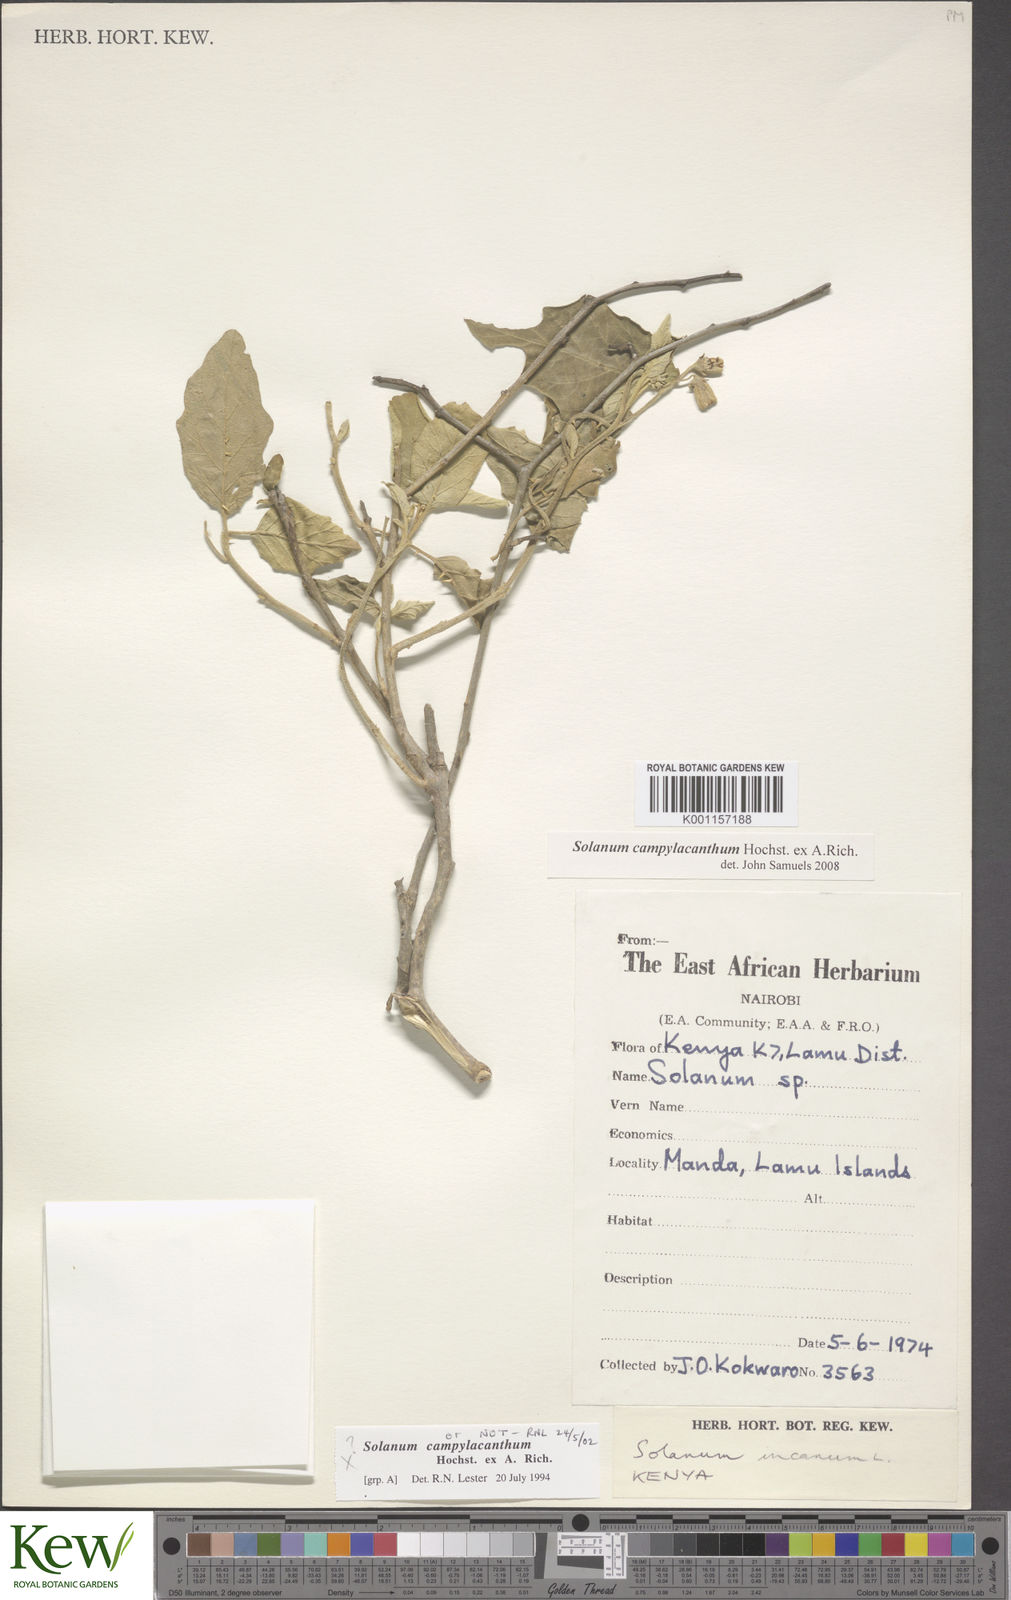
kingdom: Plantae
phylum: Tracheophyta
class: Magnoliopsida
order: Solanales
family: Solanaceae
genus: Solanum
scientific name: Solanum campylacanthum
